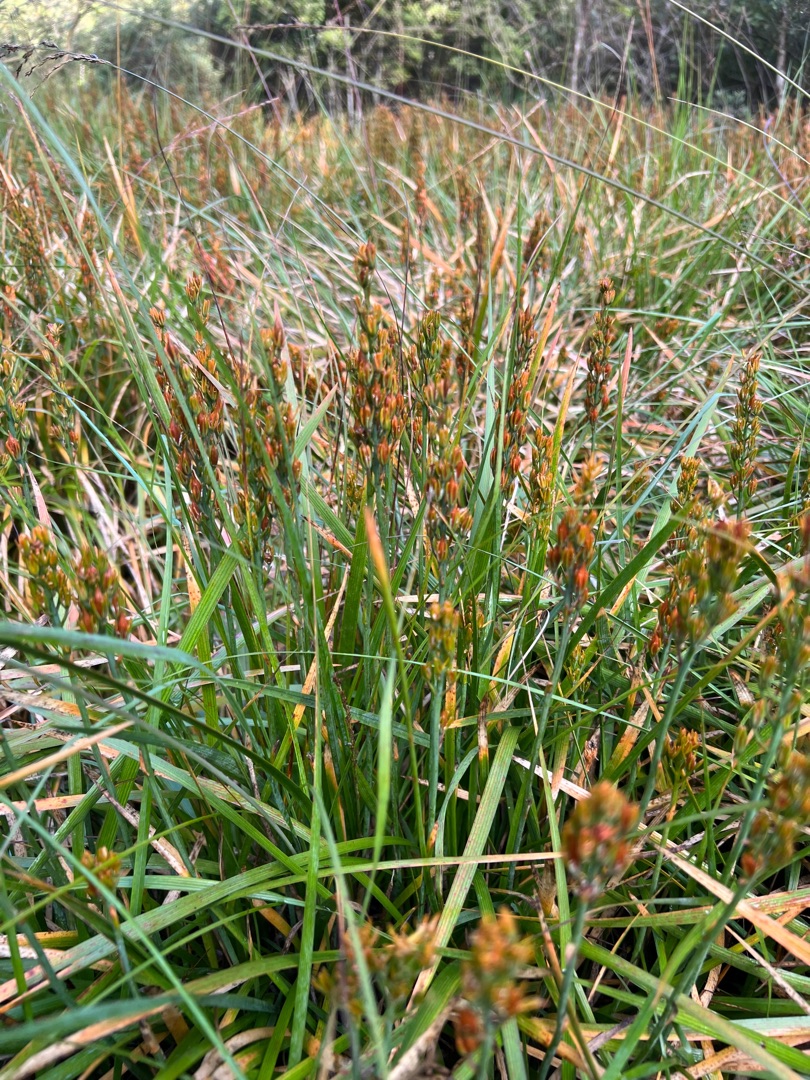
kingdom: Plantae
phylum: Tracheophyta
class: Liliopsida
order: Dioscoreales
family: Nartheciaceae
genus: Narthecium
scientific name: Narthecium ossifragum
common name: Benbræk
